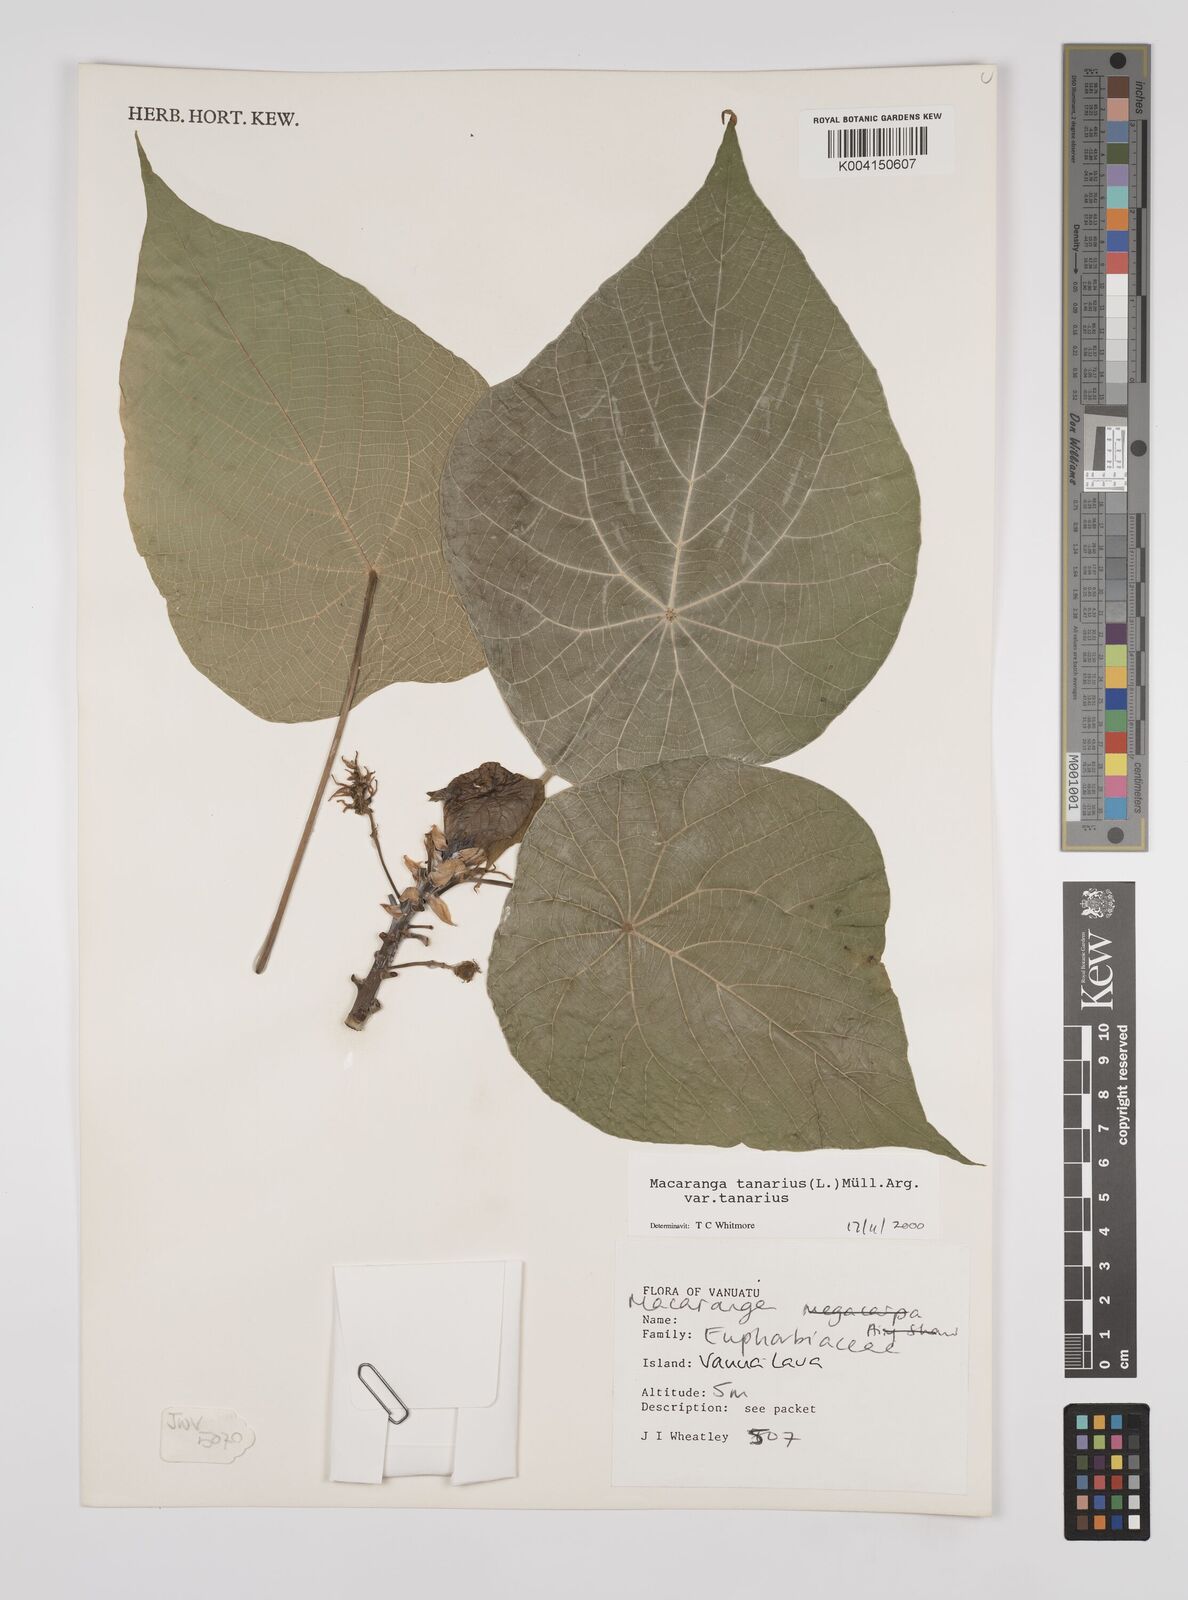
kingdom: Plantae
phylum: Tracheophyta
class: Magnoliopsida
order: Malpighiales
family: Euphorbiaceae
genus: Macaranga
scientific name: Macaranga tanarius
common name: Parasol leaf tree
